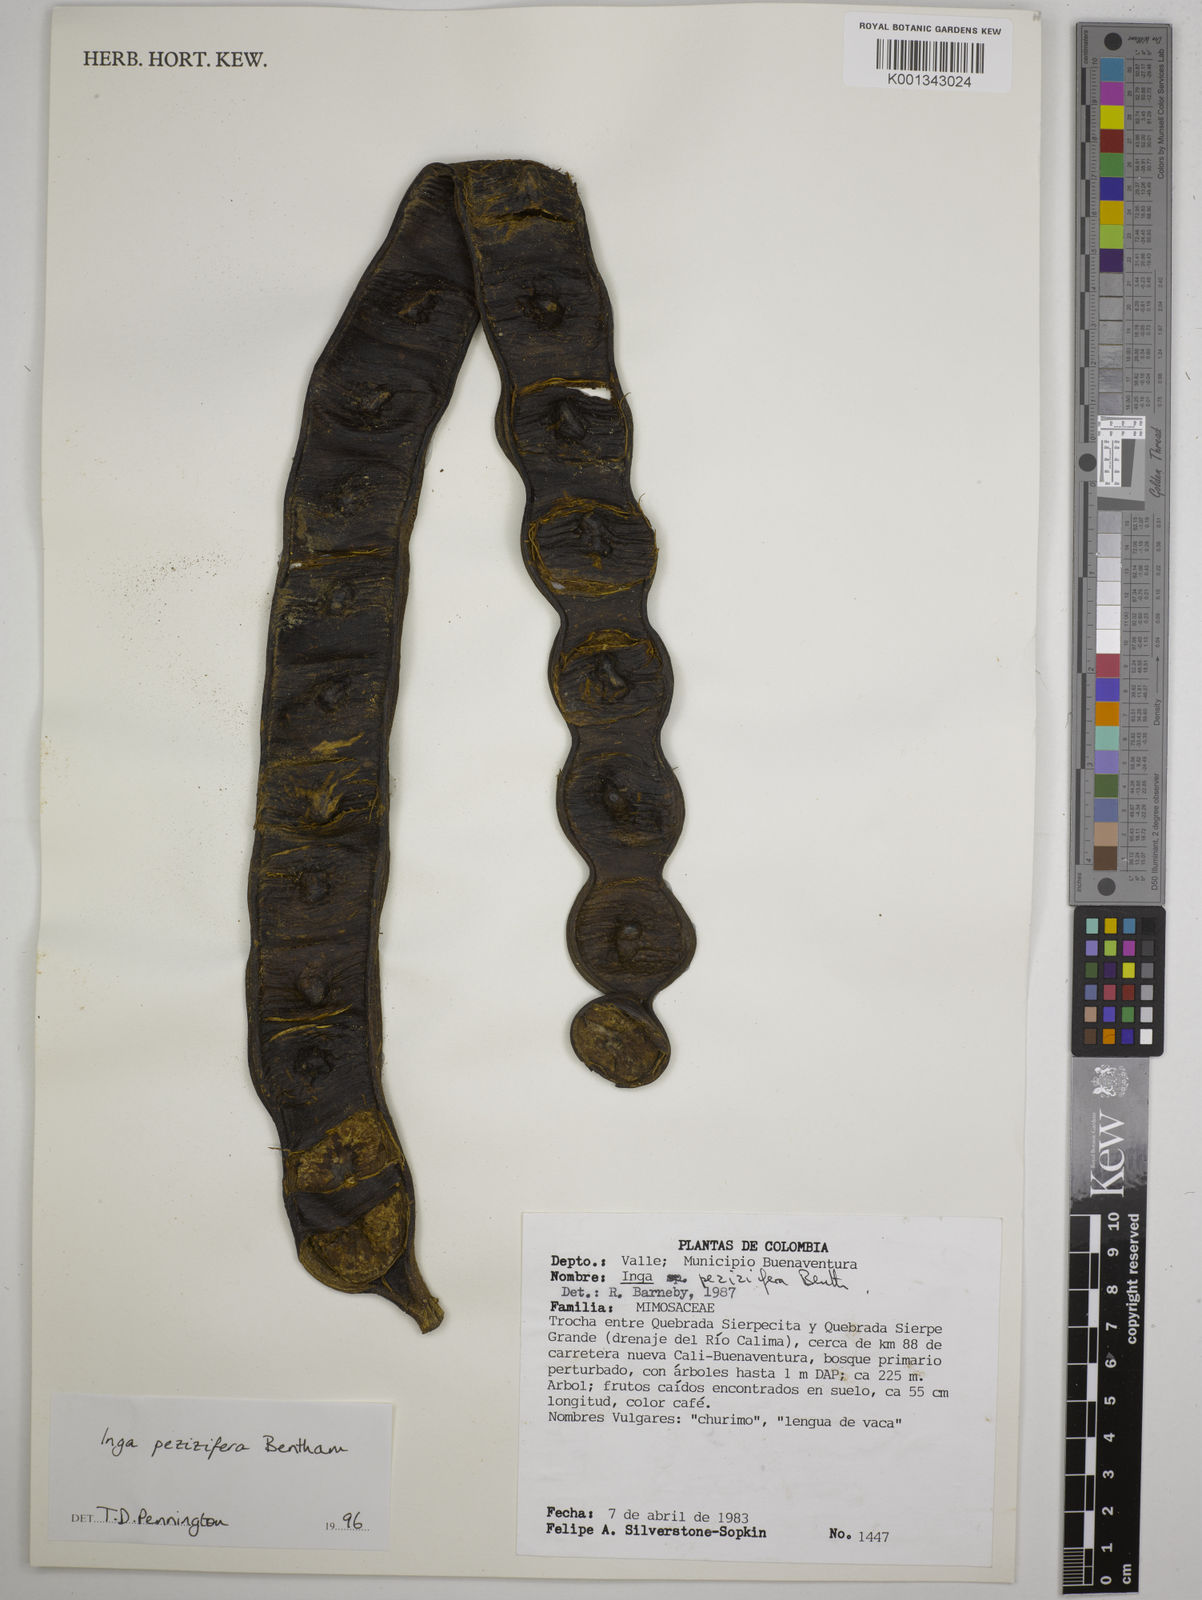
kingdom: Plantae
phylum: Tracheophyta
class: Magnoliopsida
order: Fabales
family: Fabaceae
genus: Inga
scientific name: Inga pezizifera
